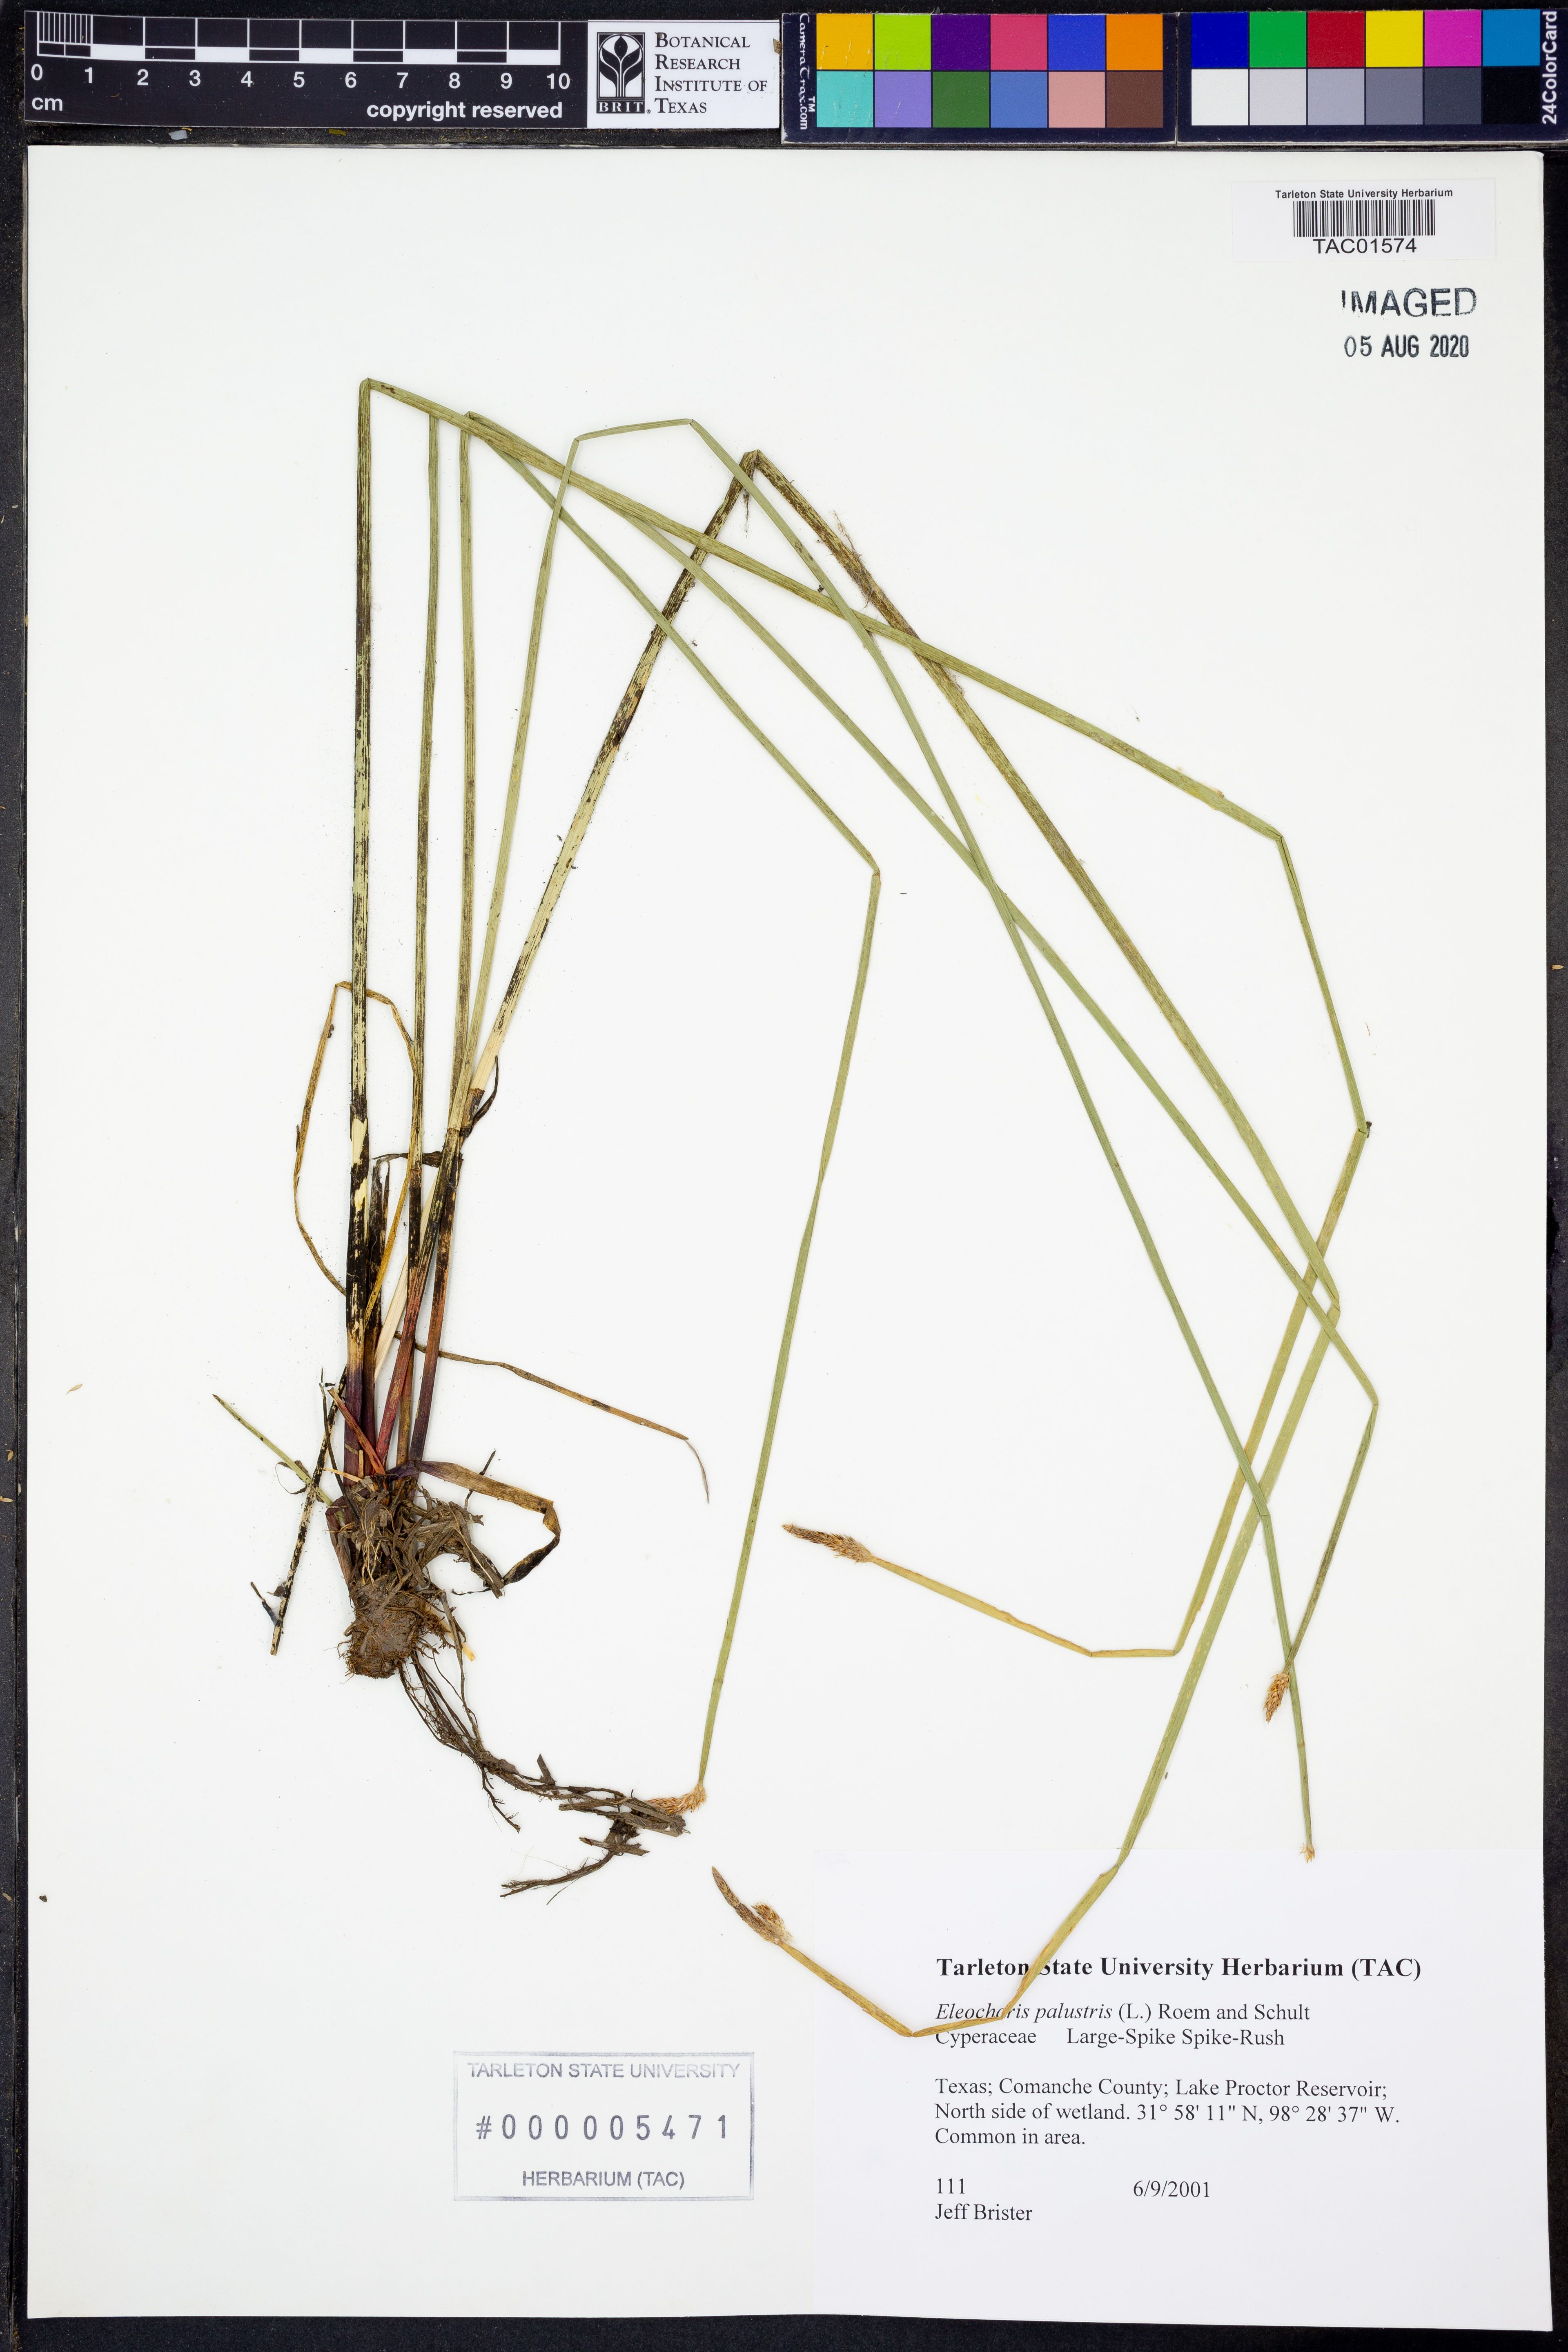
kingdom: Plantae
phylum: Tracheophyta
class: Liliopsida
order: Poales
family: Cyperaceae
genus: Eleocharis
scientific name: Eleocharis palustris
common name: Common spike-rush
